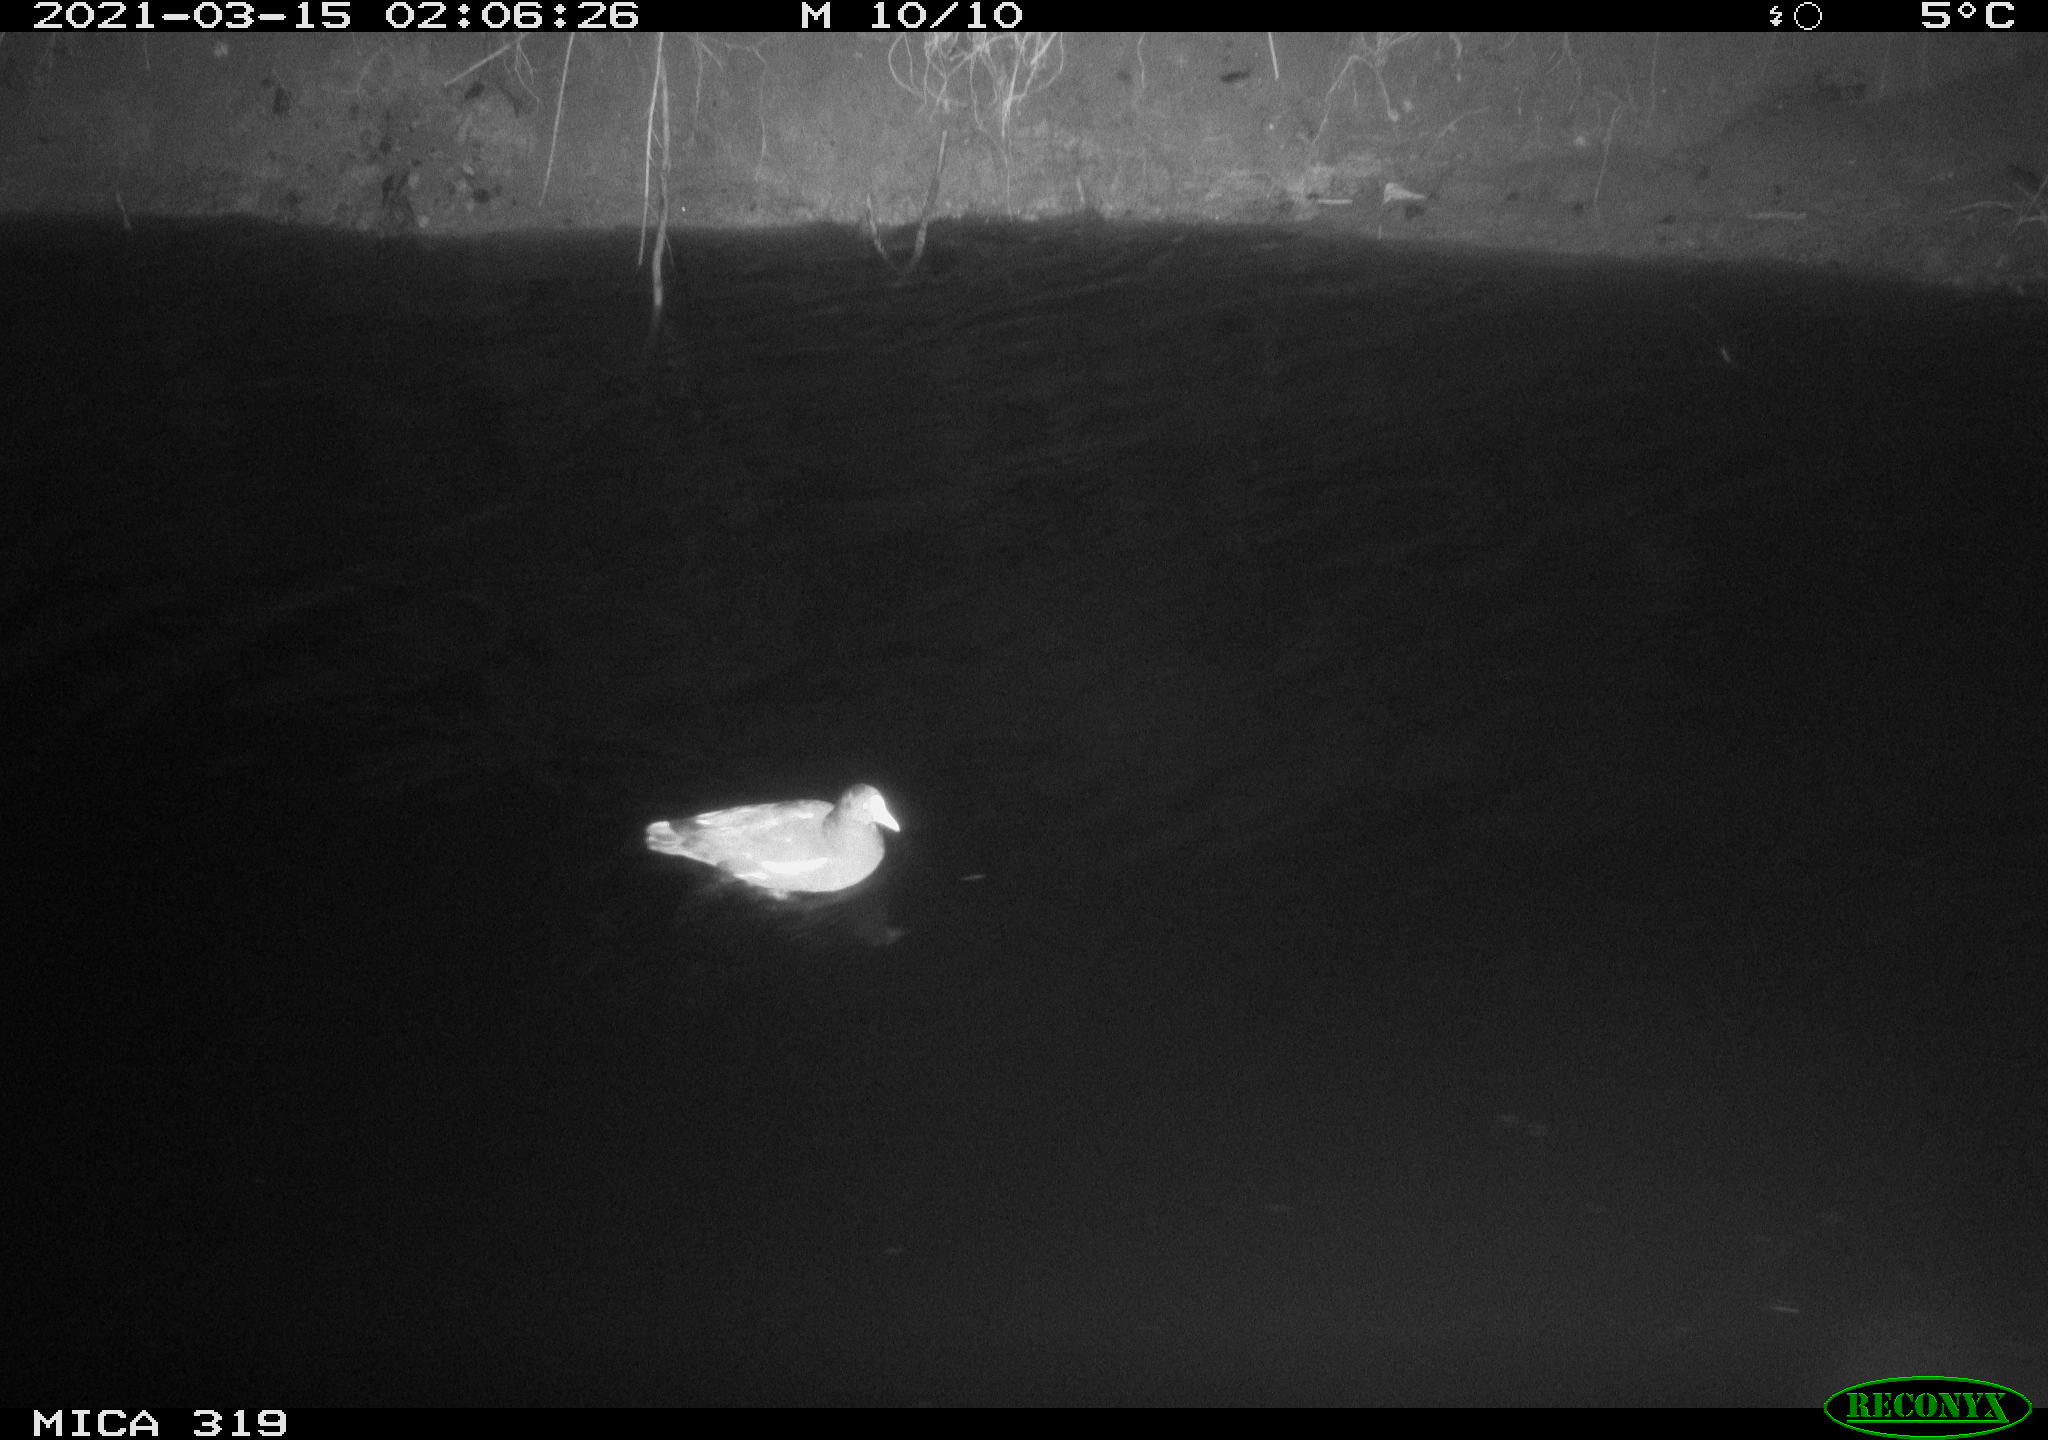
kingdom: Animalia
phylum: Chordata
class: Aves
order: Gruiformes
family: Rallidae
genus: Gallinula
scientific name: Gallinula chloropus
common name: Common moorhen
